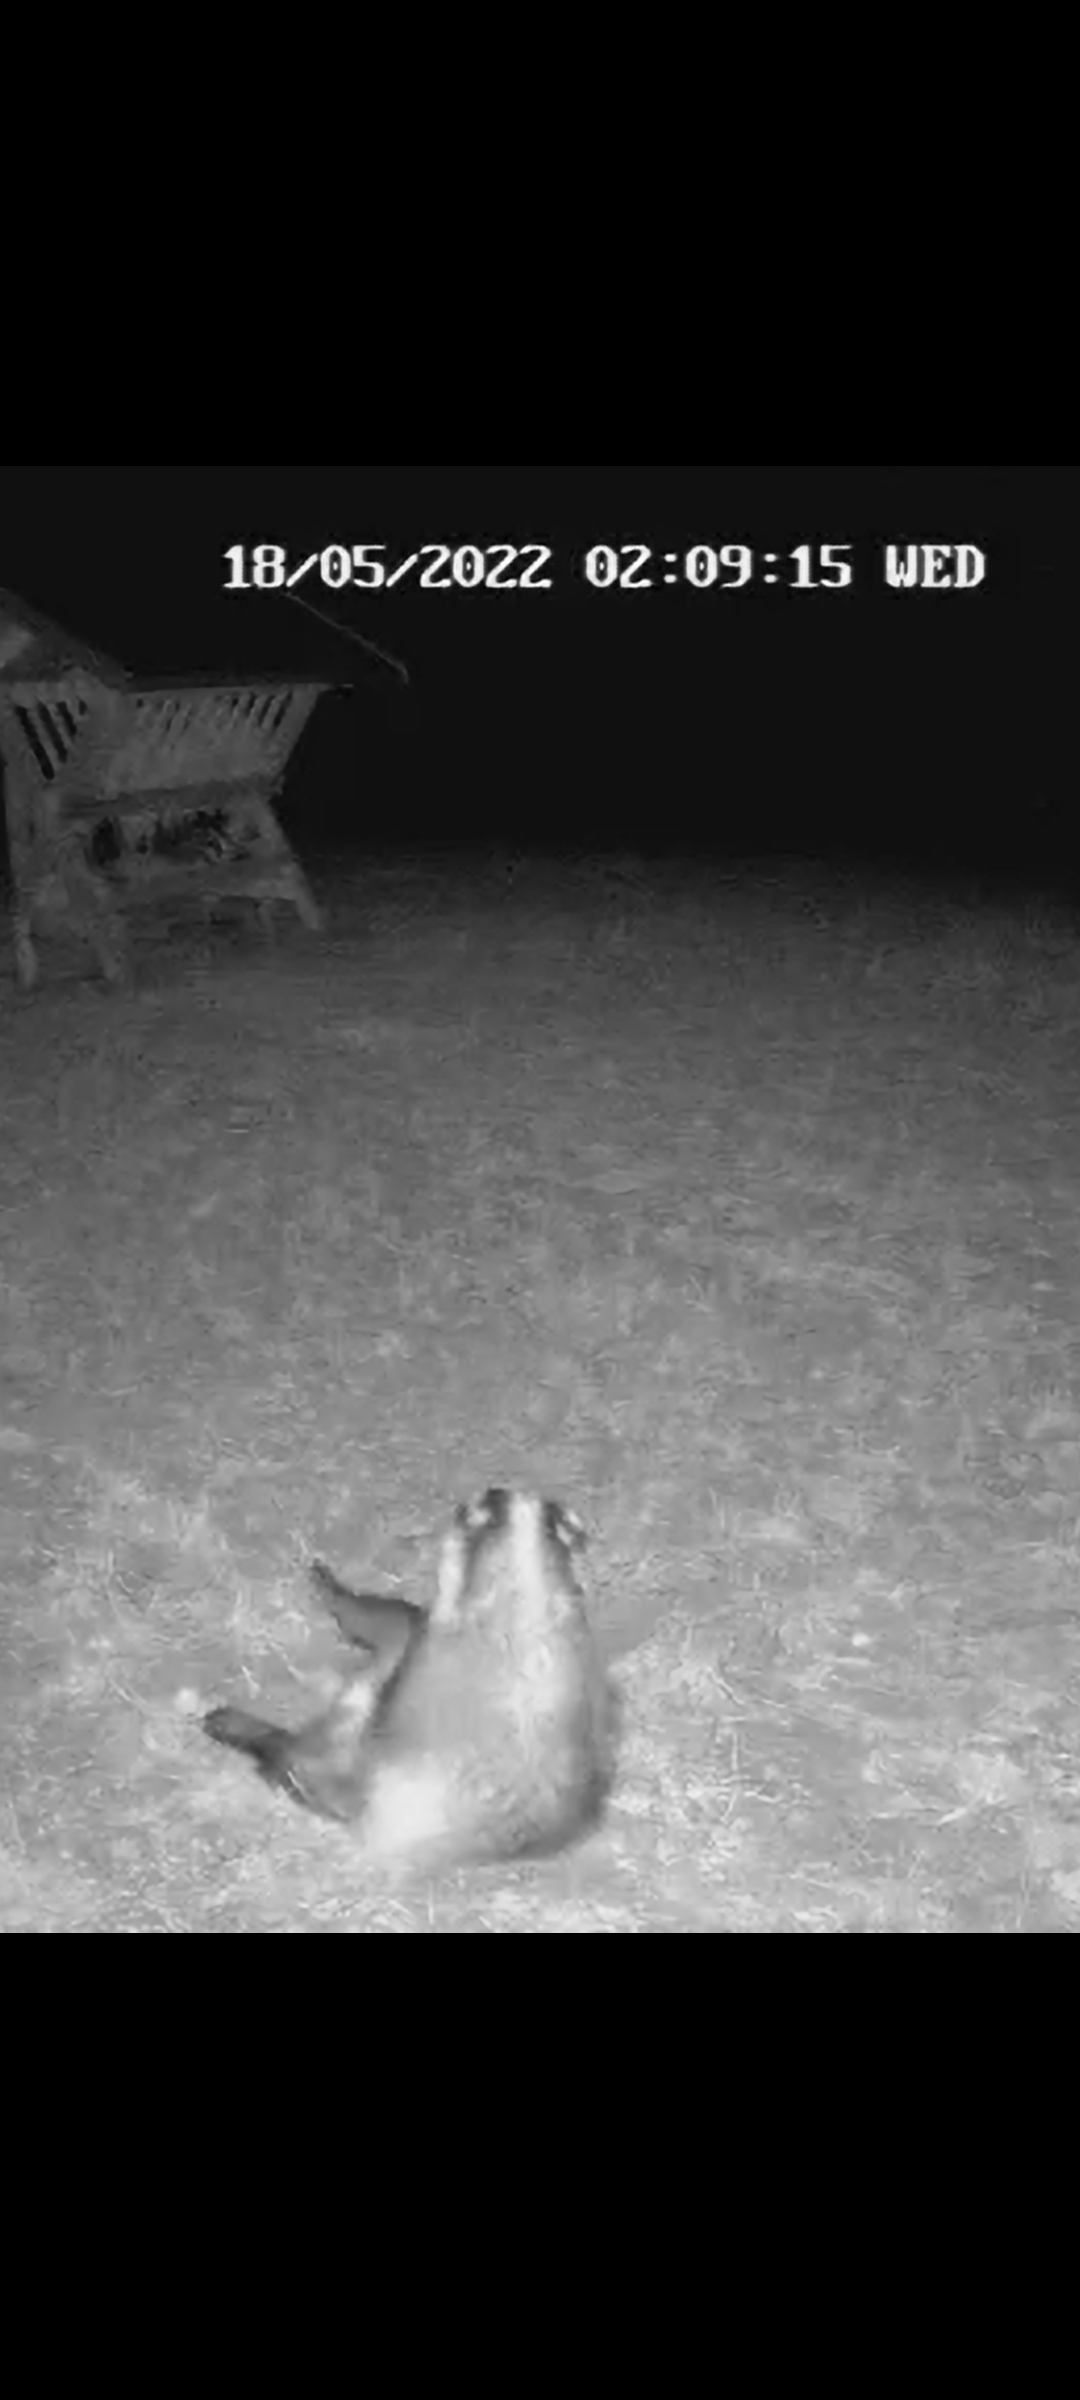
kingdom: Animalia
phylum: Chordata
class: Mammalia
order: Carnivora
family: Mustelidae
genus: Meles
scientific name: Meles meles
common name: Grævling
